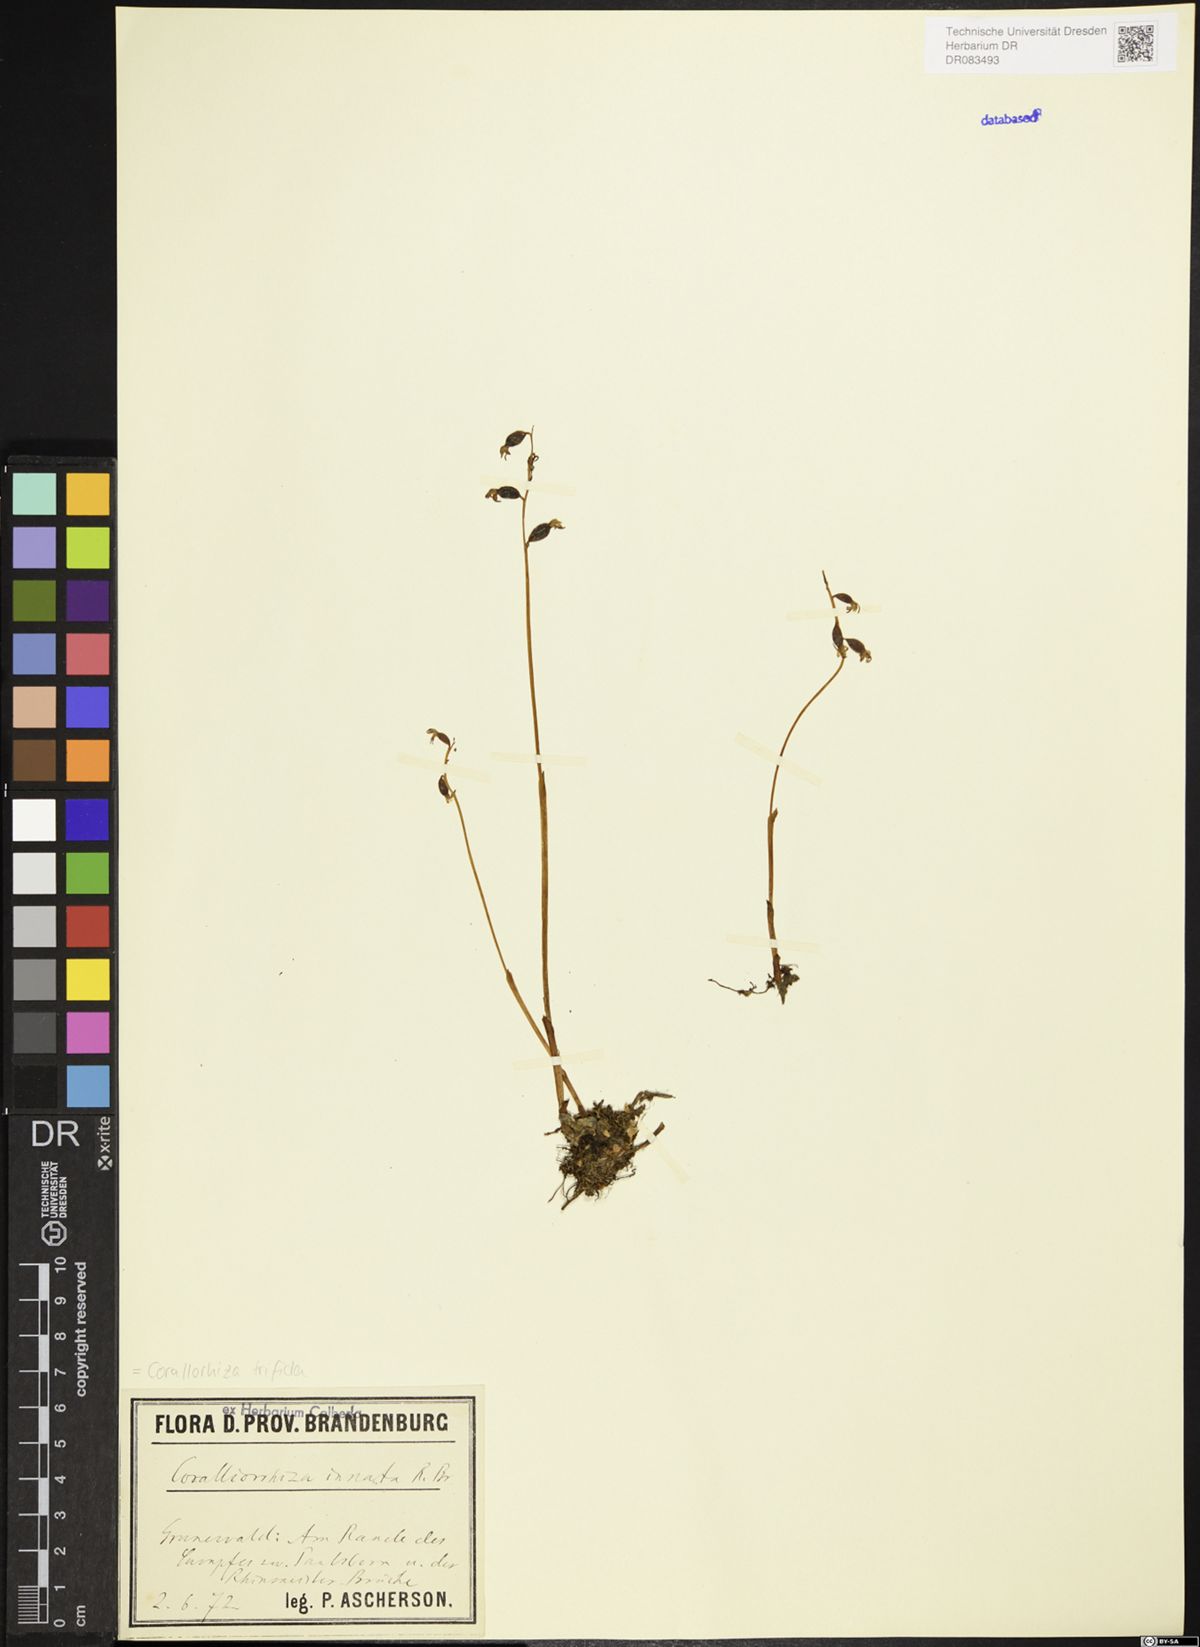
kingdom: Plantae
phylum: Tracheophyta
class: Liliopsida
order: Asparagales
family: Orchidaceae
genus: Corallorhiza
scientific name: Corallorhiza trifida
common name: Yellow coralroot
